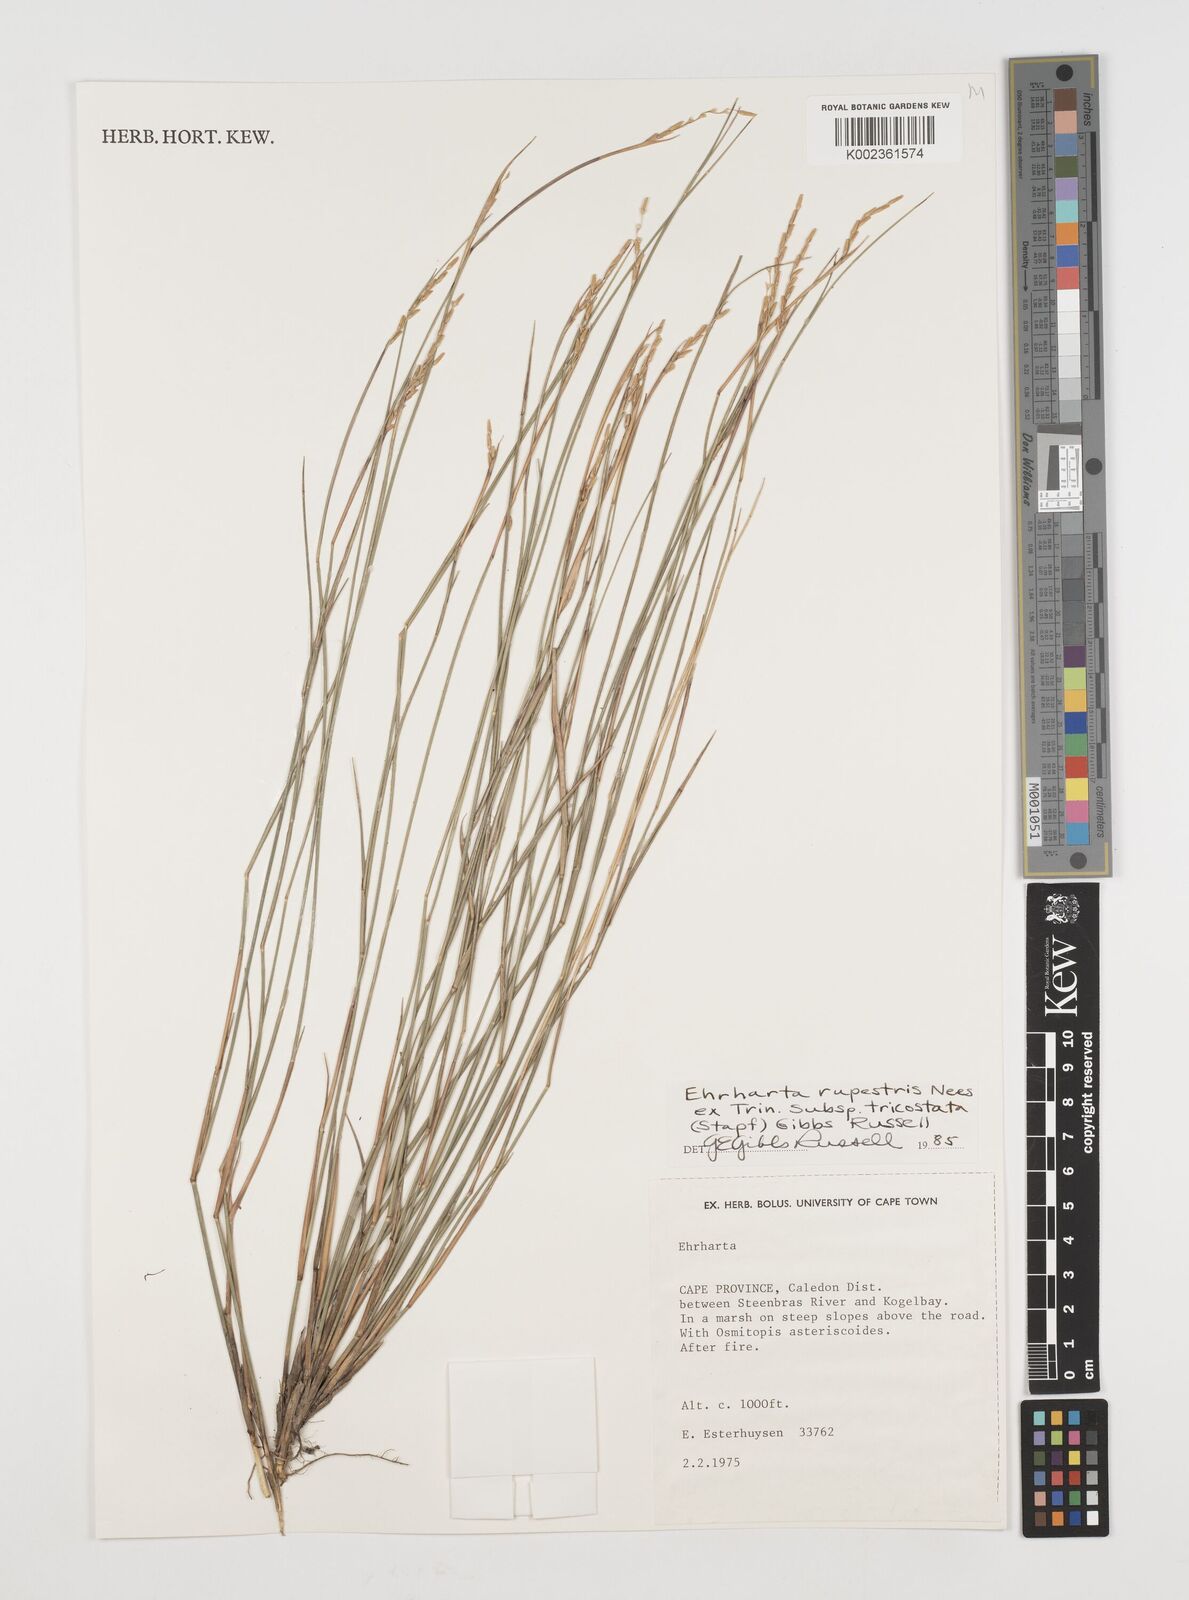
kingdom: Plantae
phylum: Tracheophyta
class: Liliopsida
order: Poales
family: Poaceae
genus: Ehrharta
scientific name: Ehrharta rupestris
